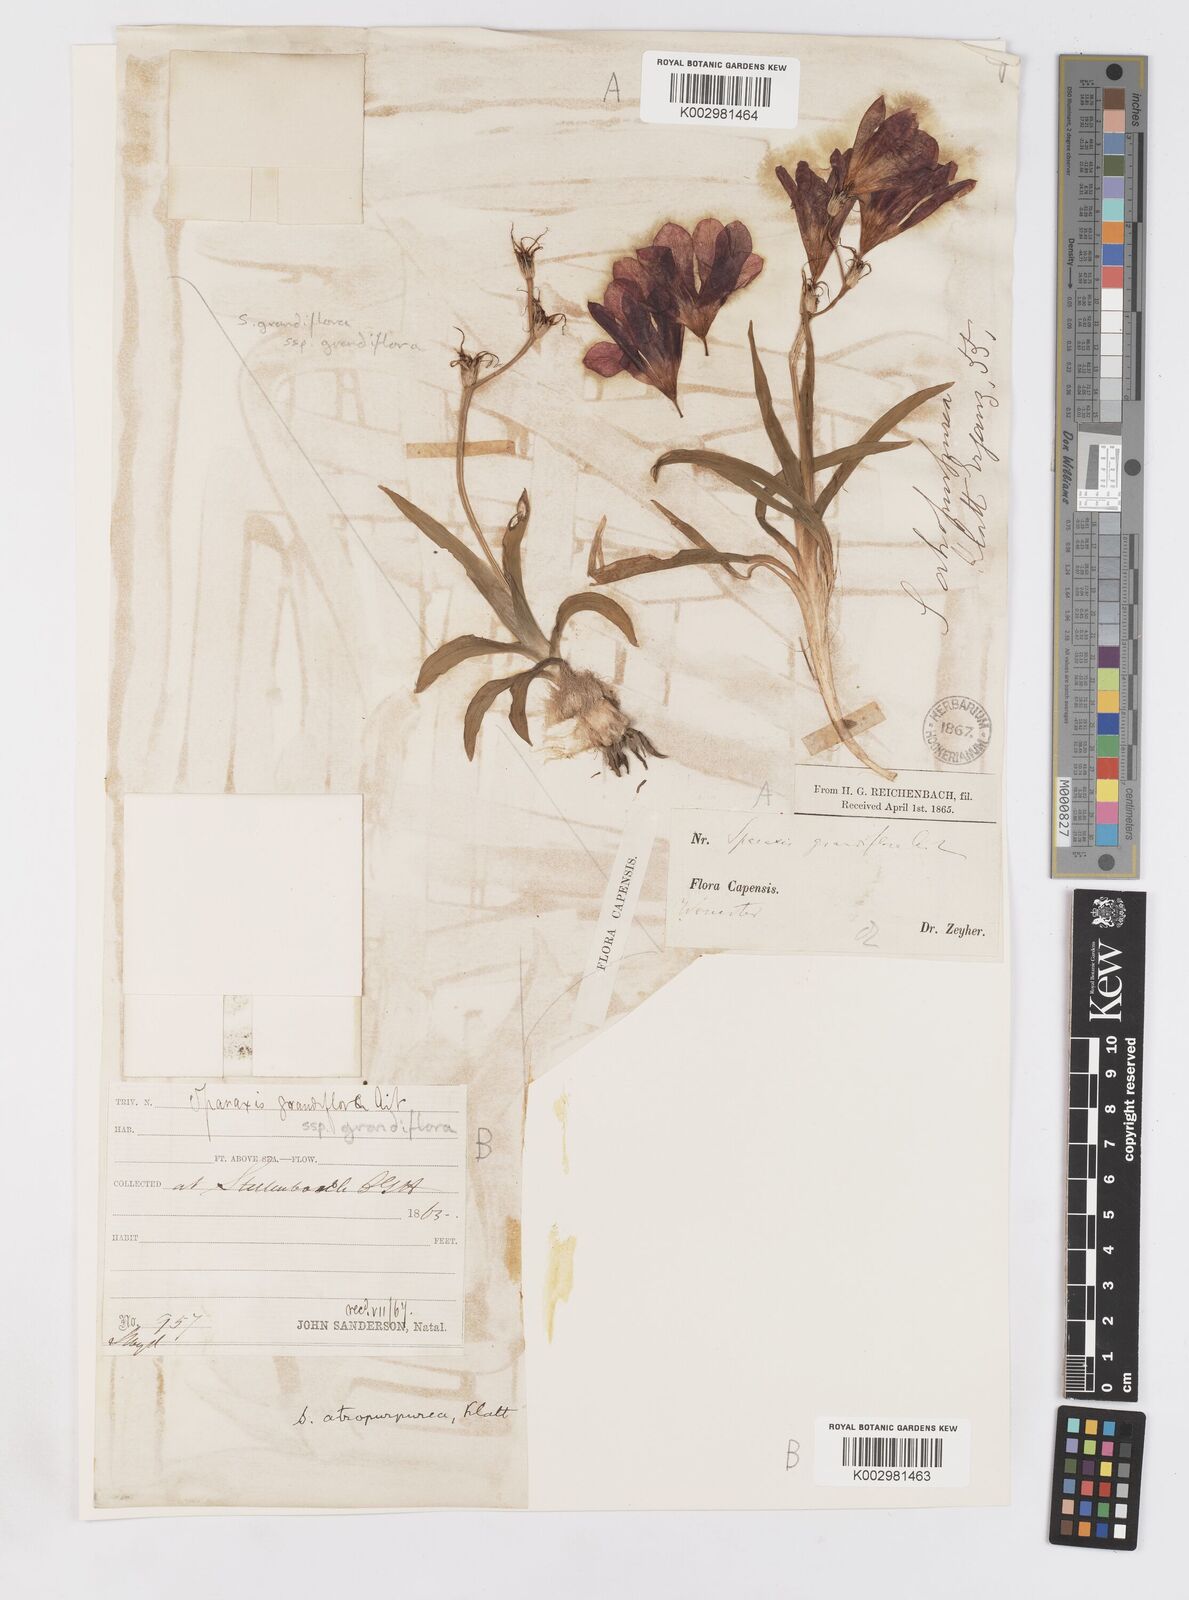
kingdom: Plantae
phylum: Tracheophyta
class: Liliopsida
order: Asparagales
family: Iridaceae
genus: Sparaxis
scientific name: Sparaxis grandiflora
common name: Plain harlequin-flower
